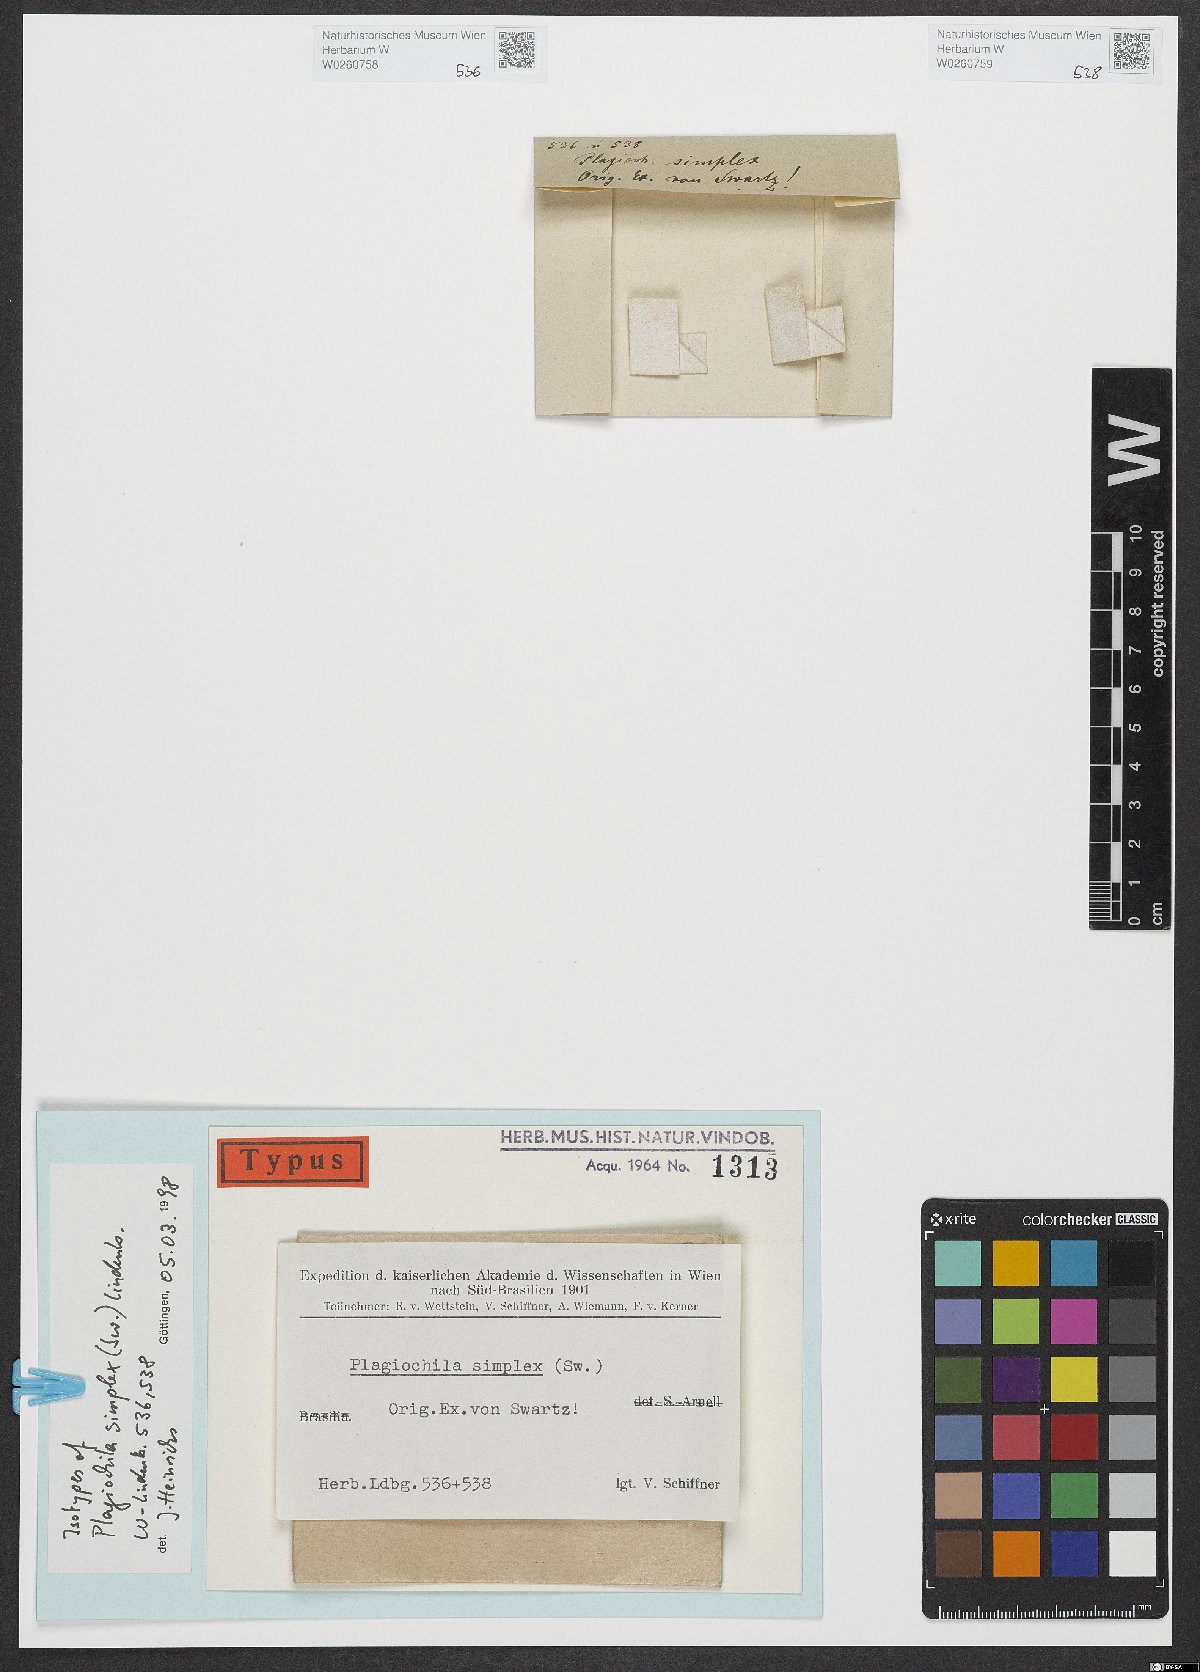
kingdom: Plantae
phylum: Marchantiophyta
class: Jungermanniopsida
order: Jungermanniales
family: Plagiochilaceae
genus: Plagiochila
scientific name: Plagiochila simplex
